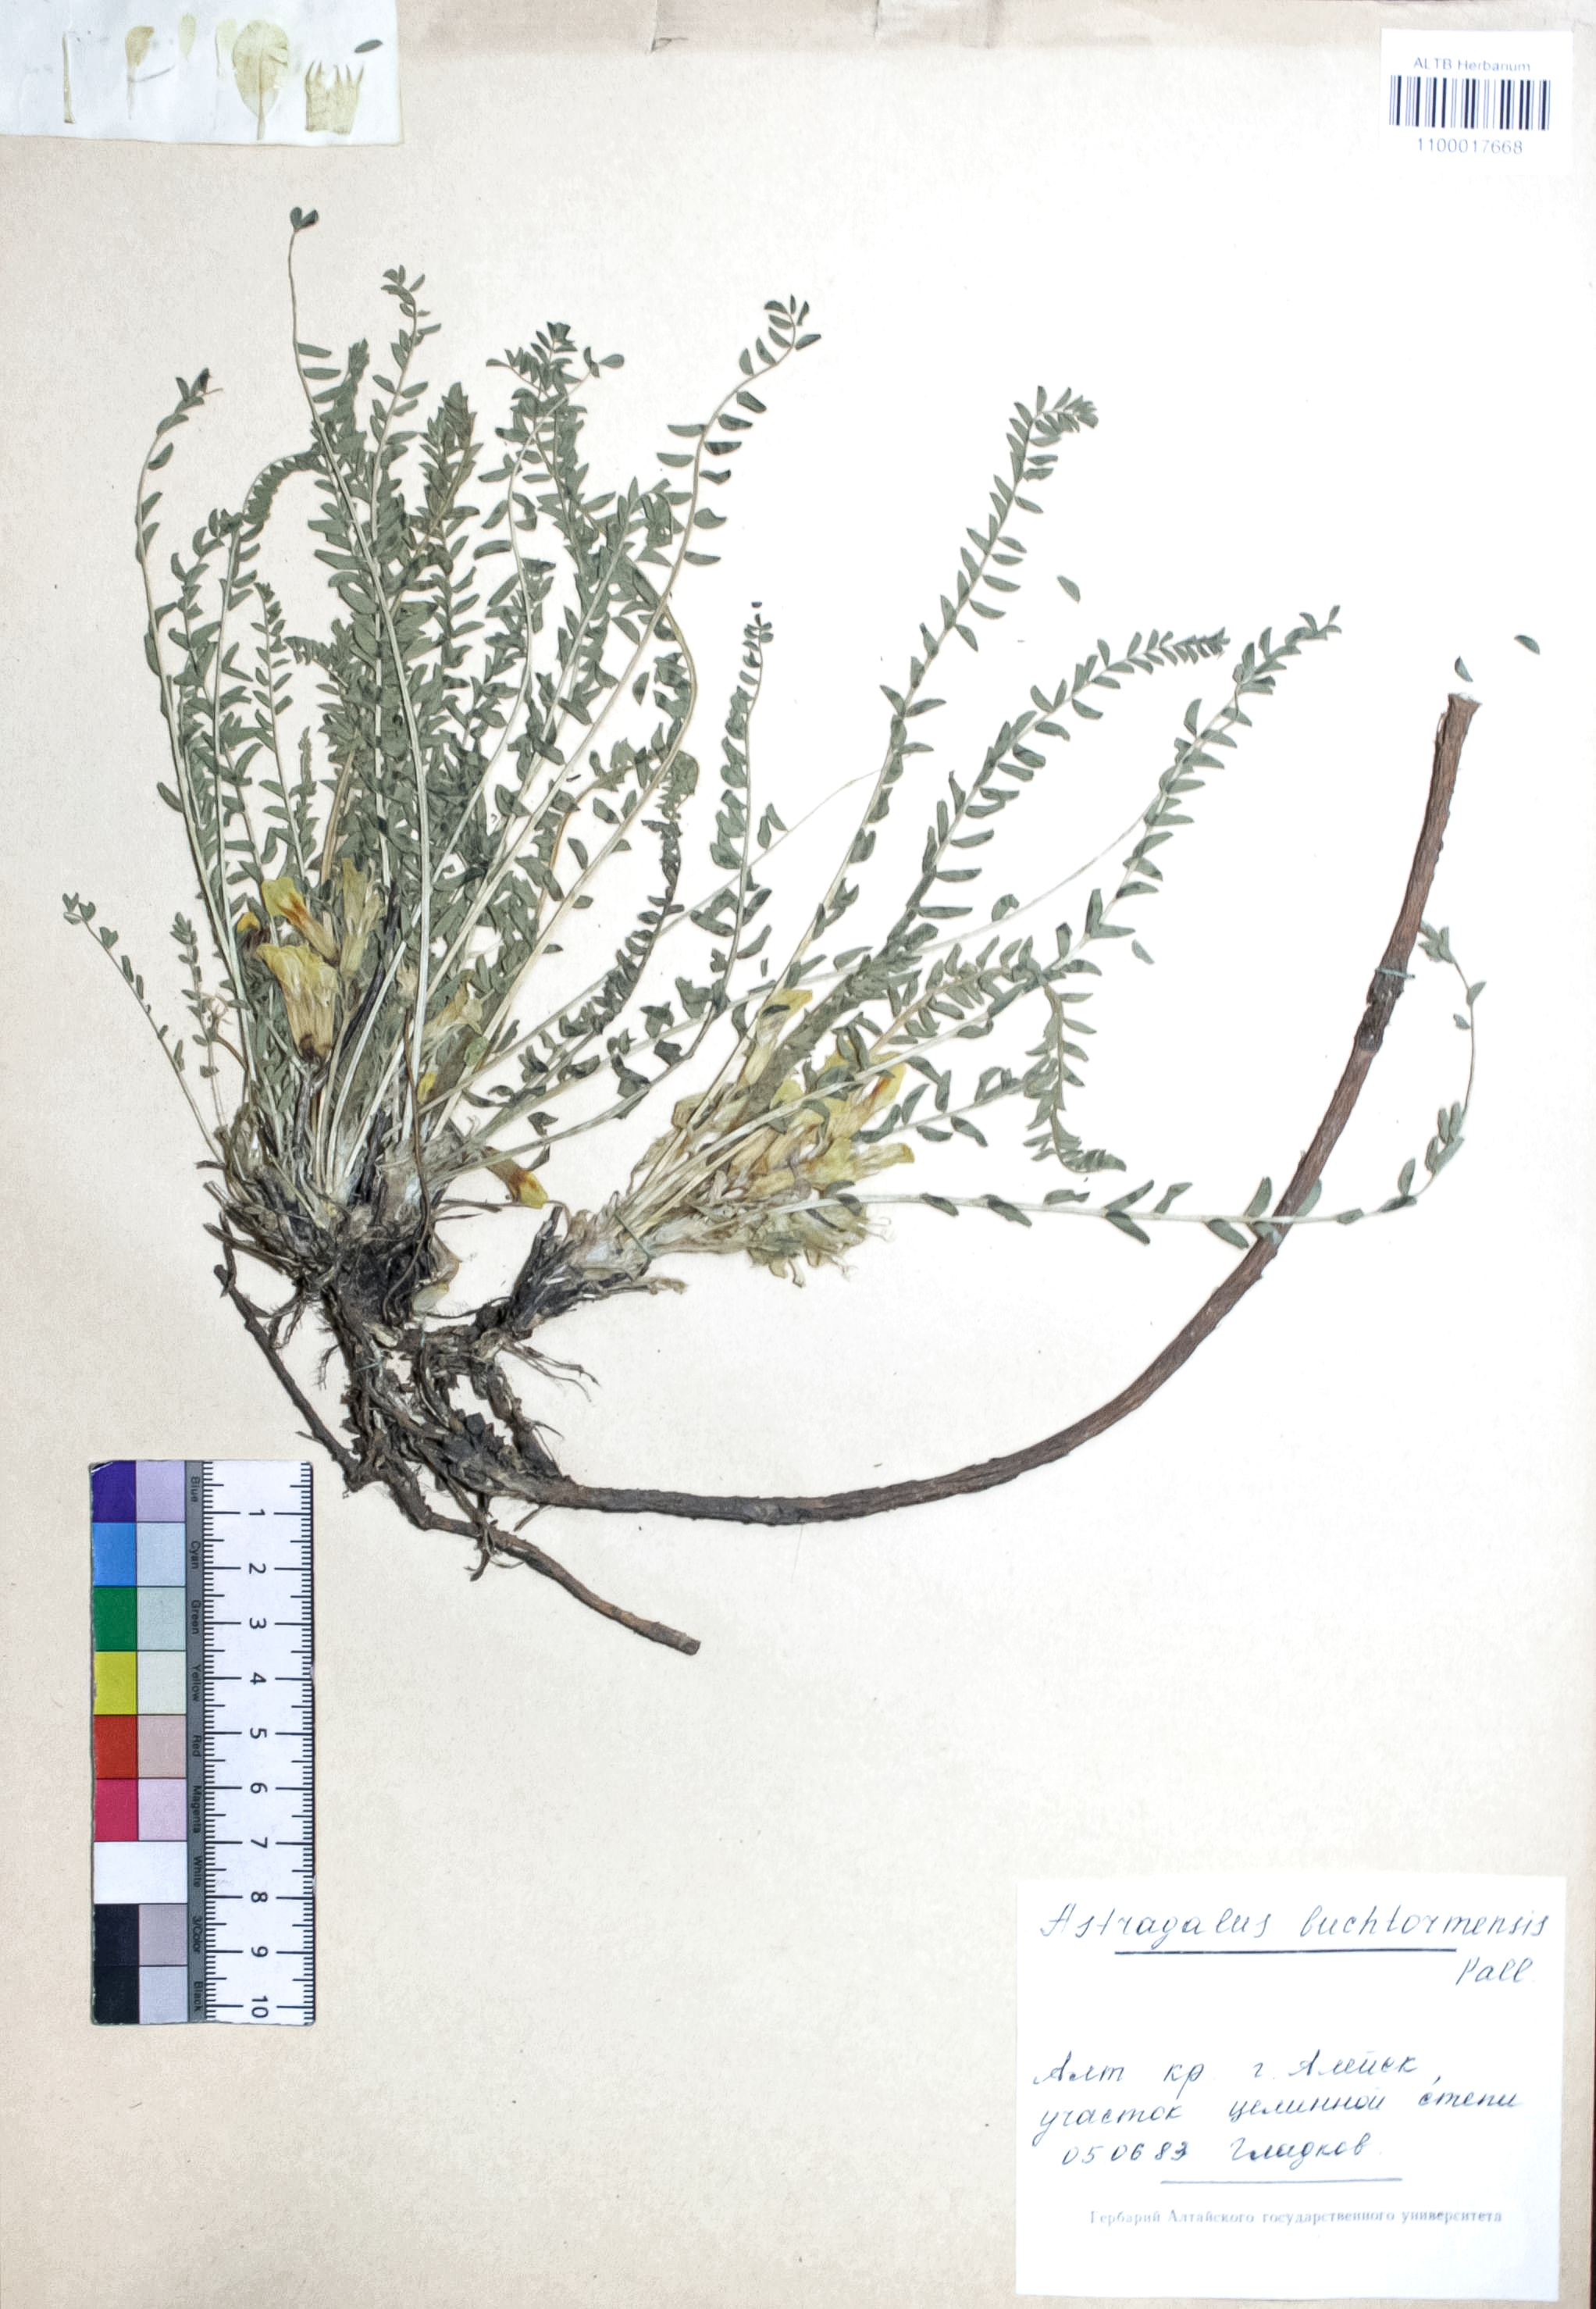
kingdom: Plantae
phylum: Tracheophyta
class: Magnoliopsida
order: Fabales
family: Fabaceae
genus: Astragalus
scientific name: Astragalus buchtormensis
